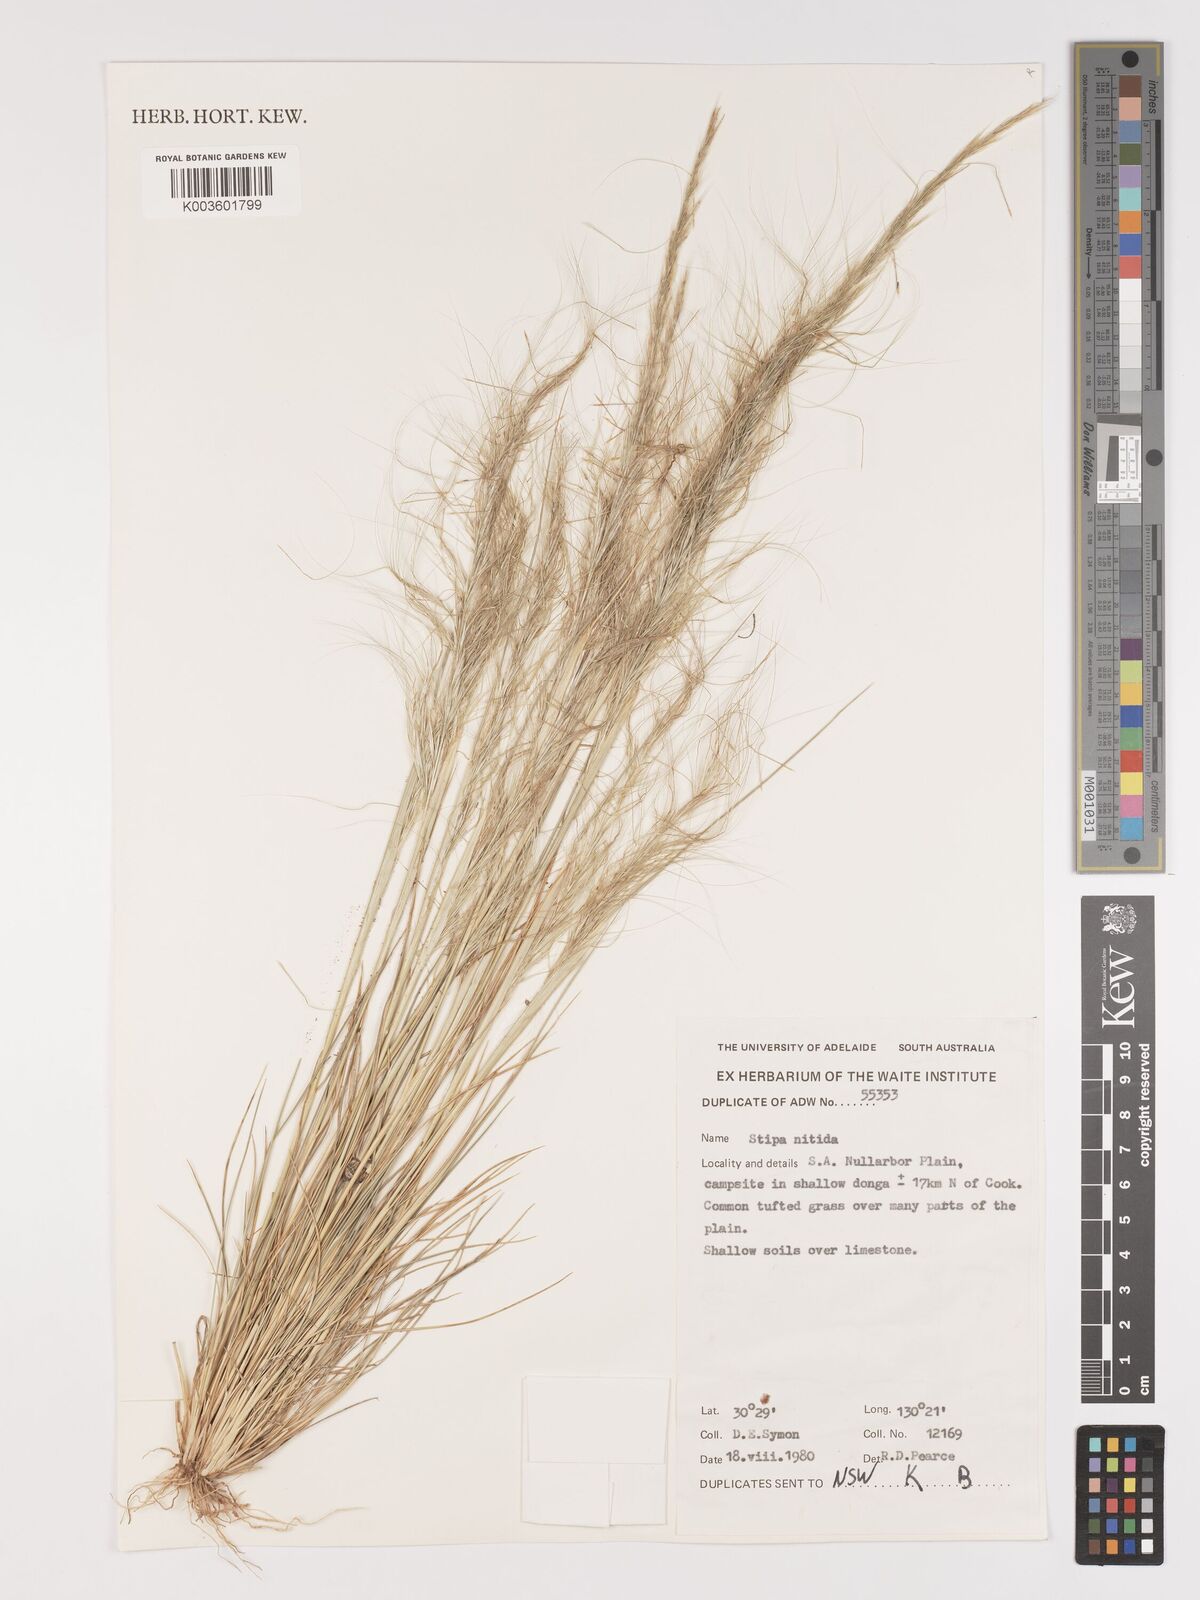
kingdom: Plantae
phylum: Tracheophyta
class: Liliopsida
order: Poales
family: Poaceae
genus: Austrostipa
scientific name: Austrostipa nitida
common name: Balcarra grass
